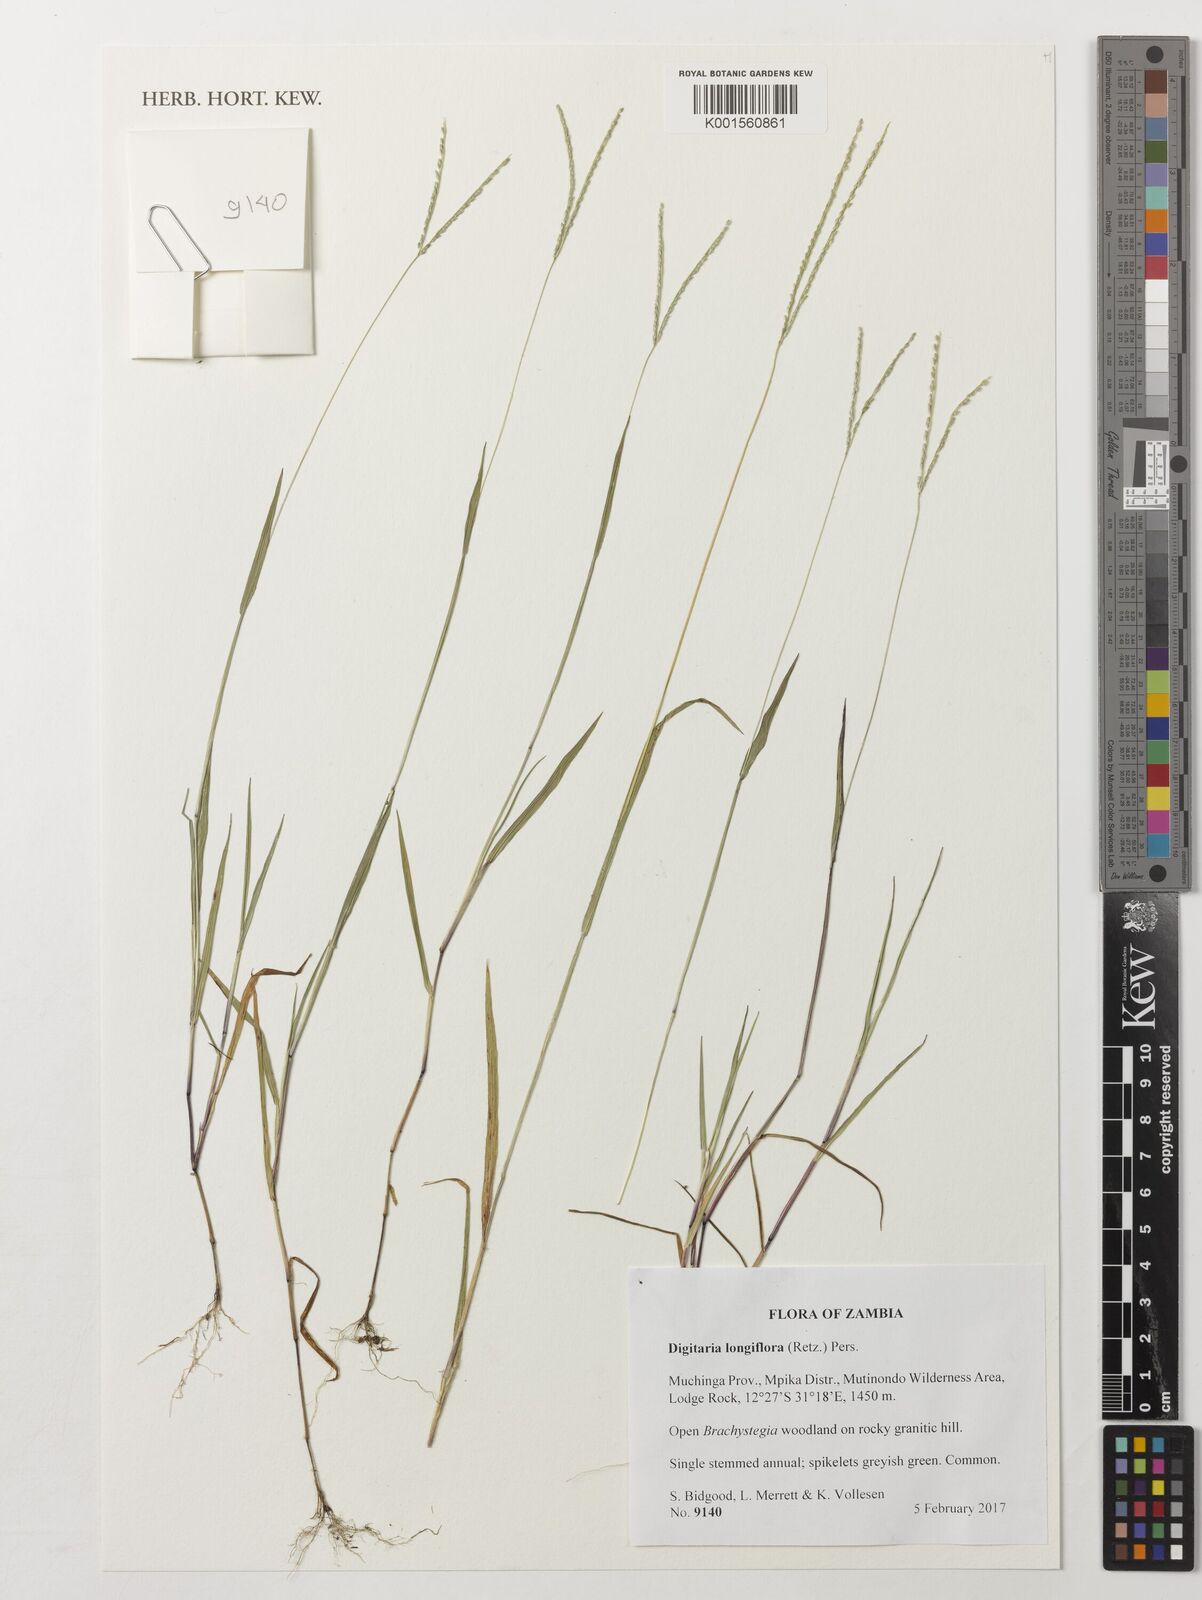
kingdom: Plantae
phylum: Tracheophyta
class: Liliopsida
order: Poales
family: Poaceae
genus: Digitaria
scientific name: Digitaria longiflora
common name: Wire crabgrass
